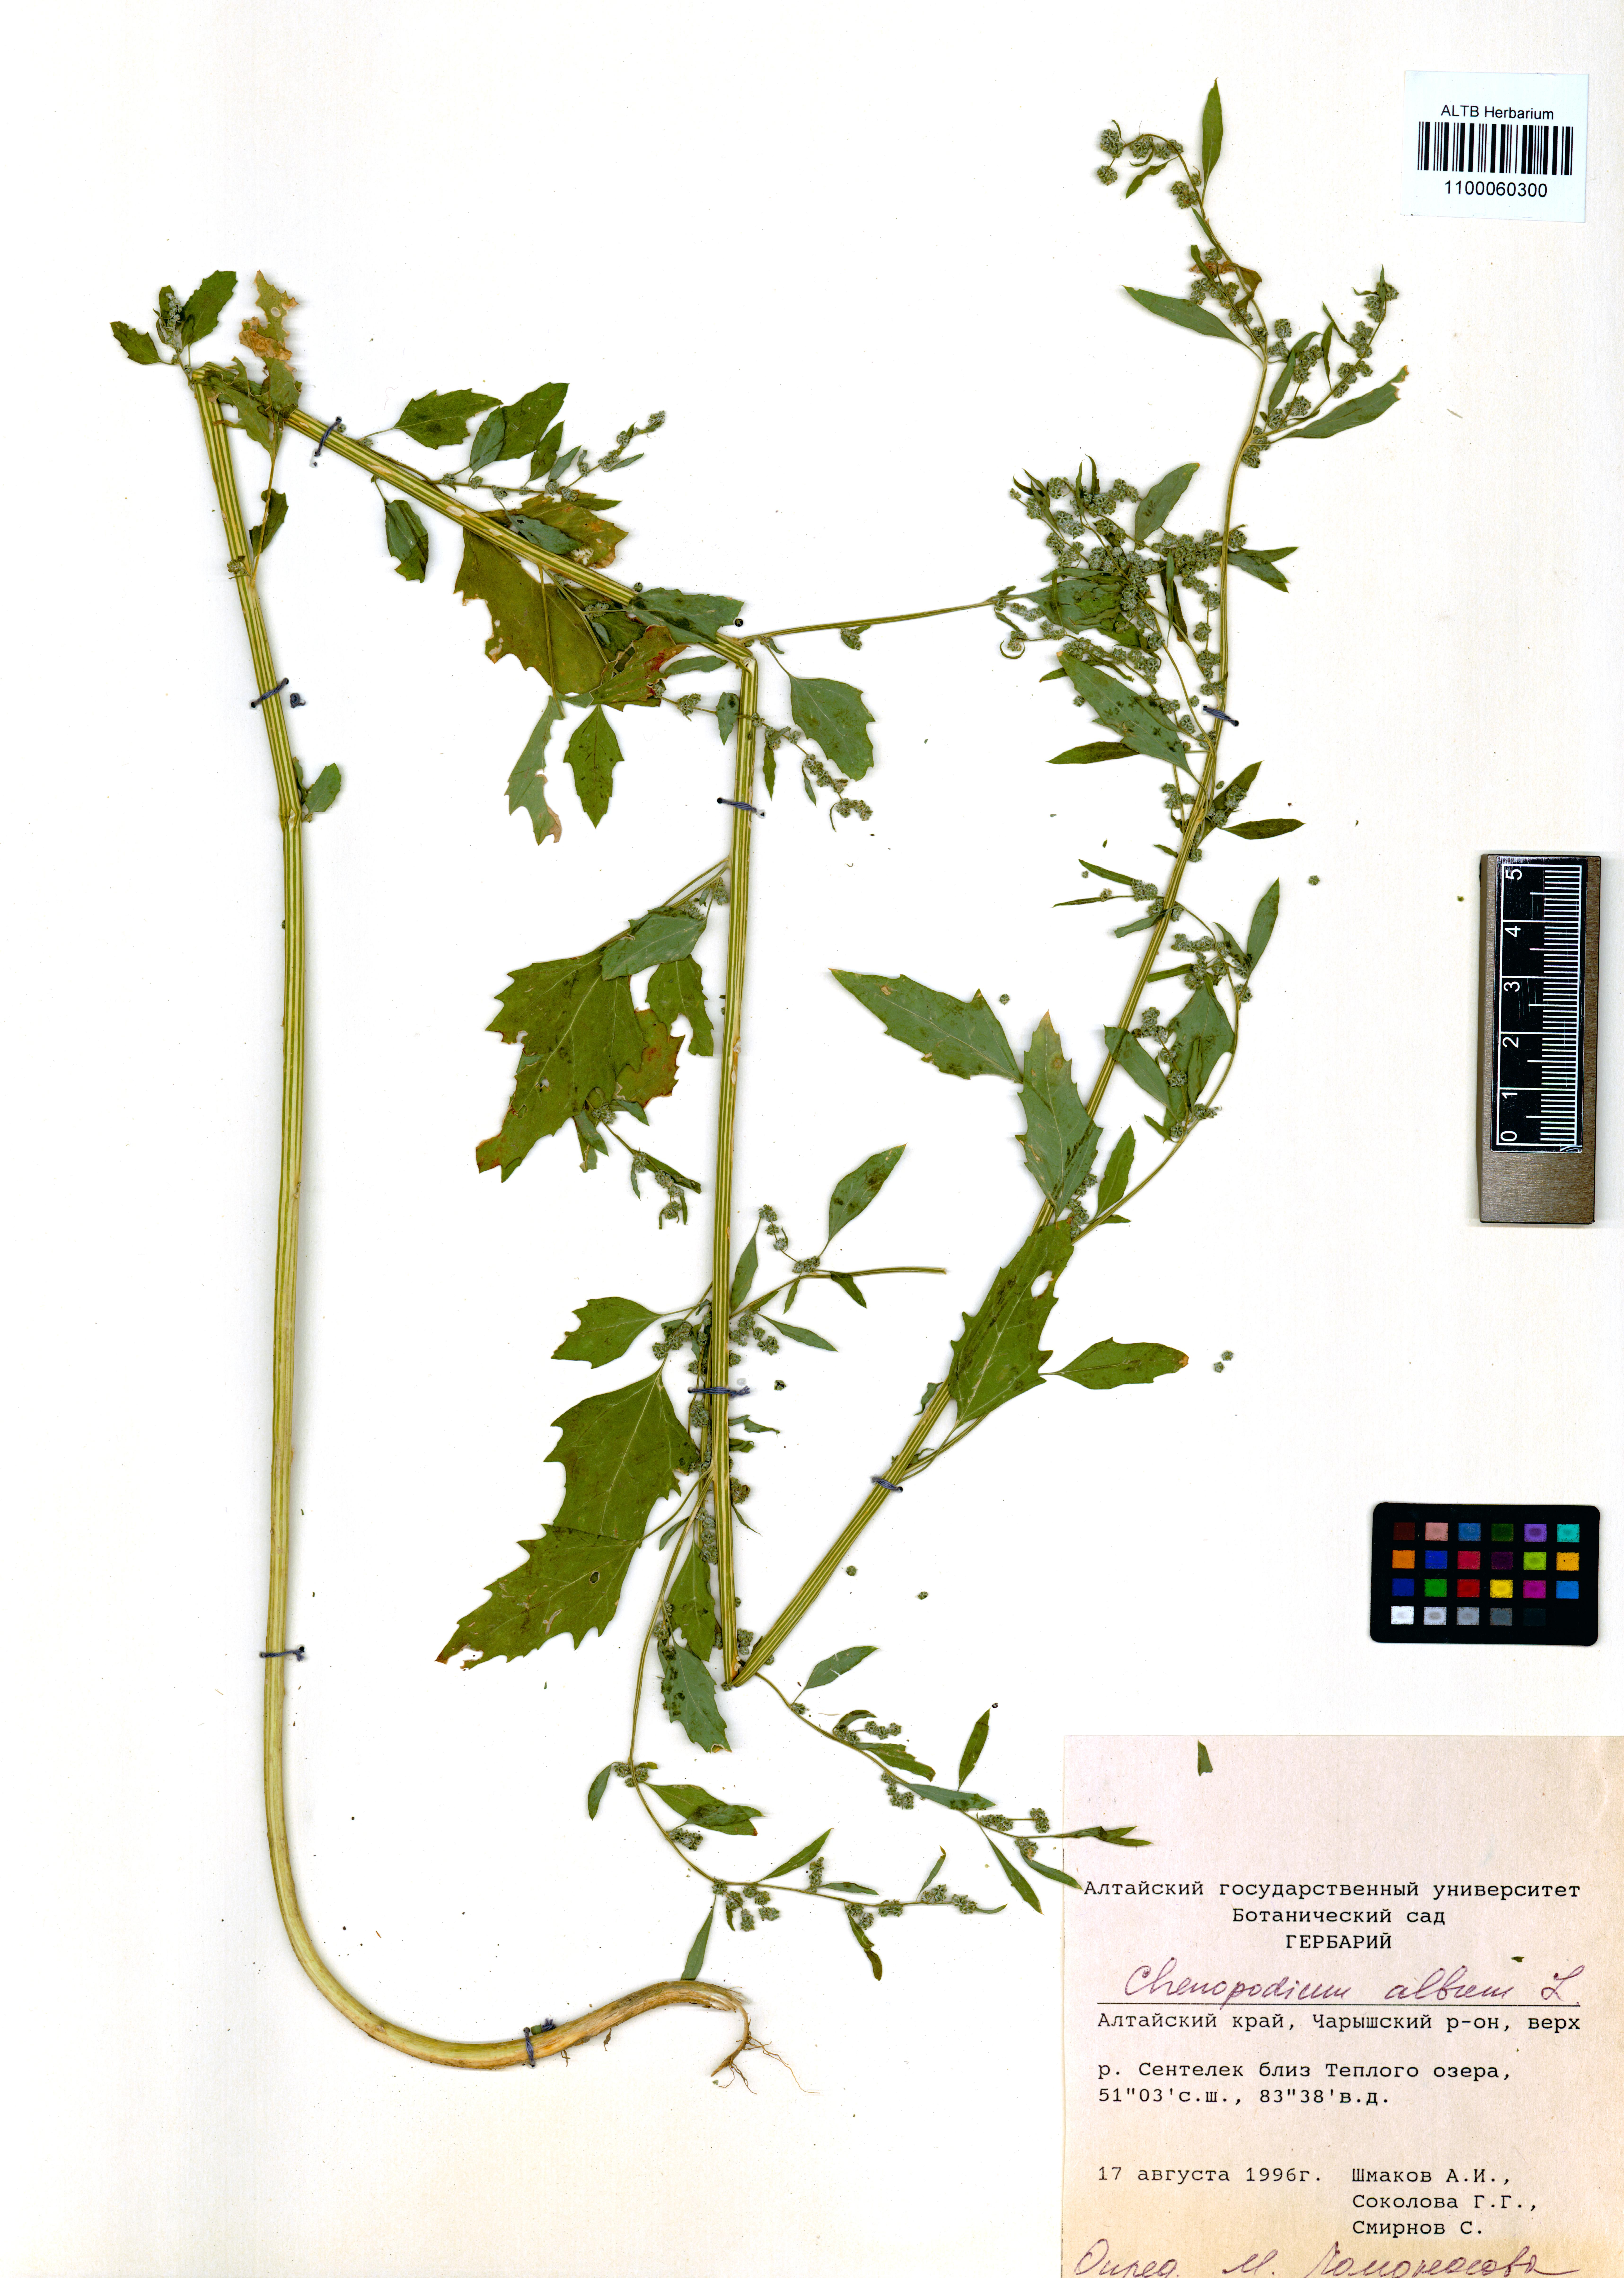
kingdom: Plantae
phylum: Tracheophyta
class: Magnoliopsida
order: Caryophyllales
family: Amaranthaceae
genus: Chenopodium
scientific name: Chenopodium album
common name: Fat-hen
